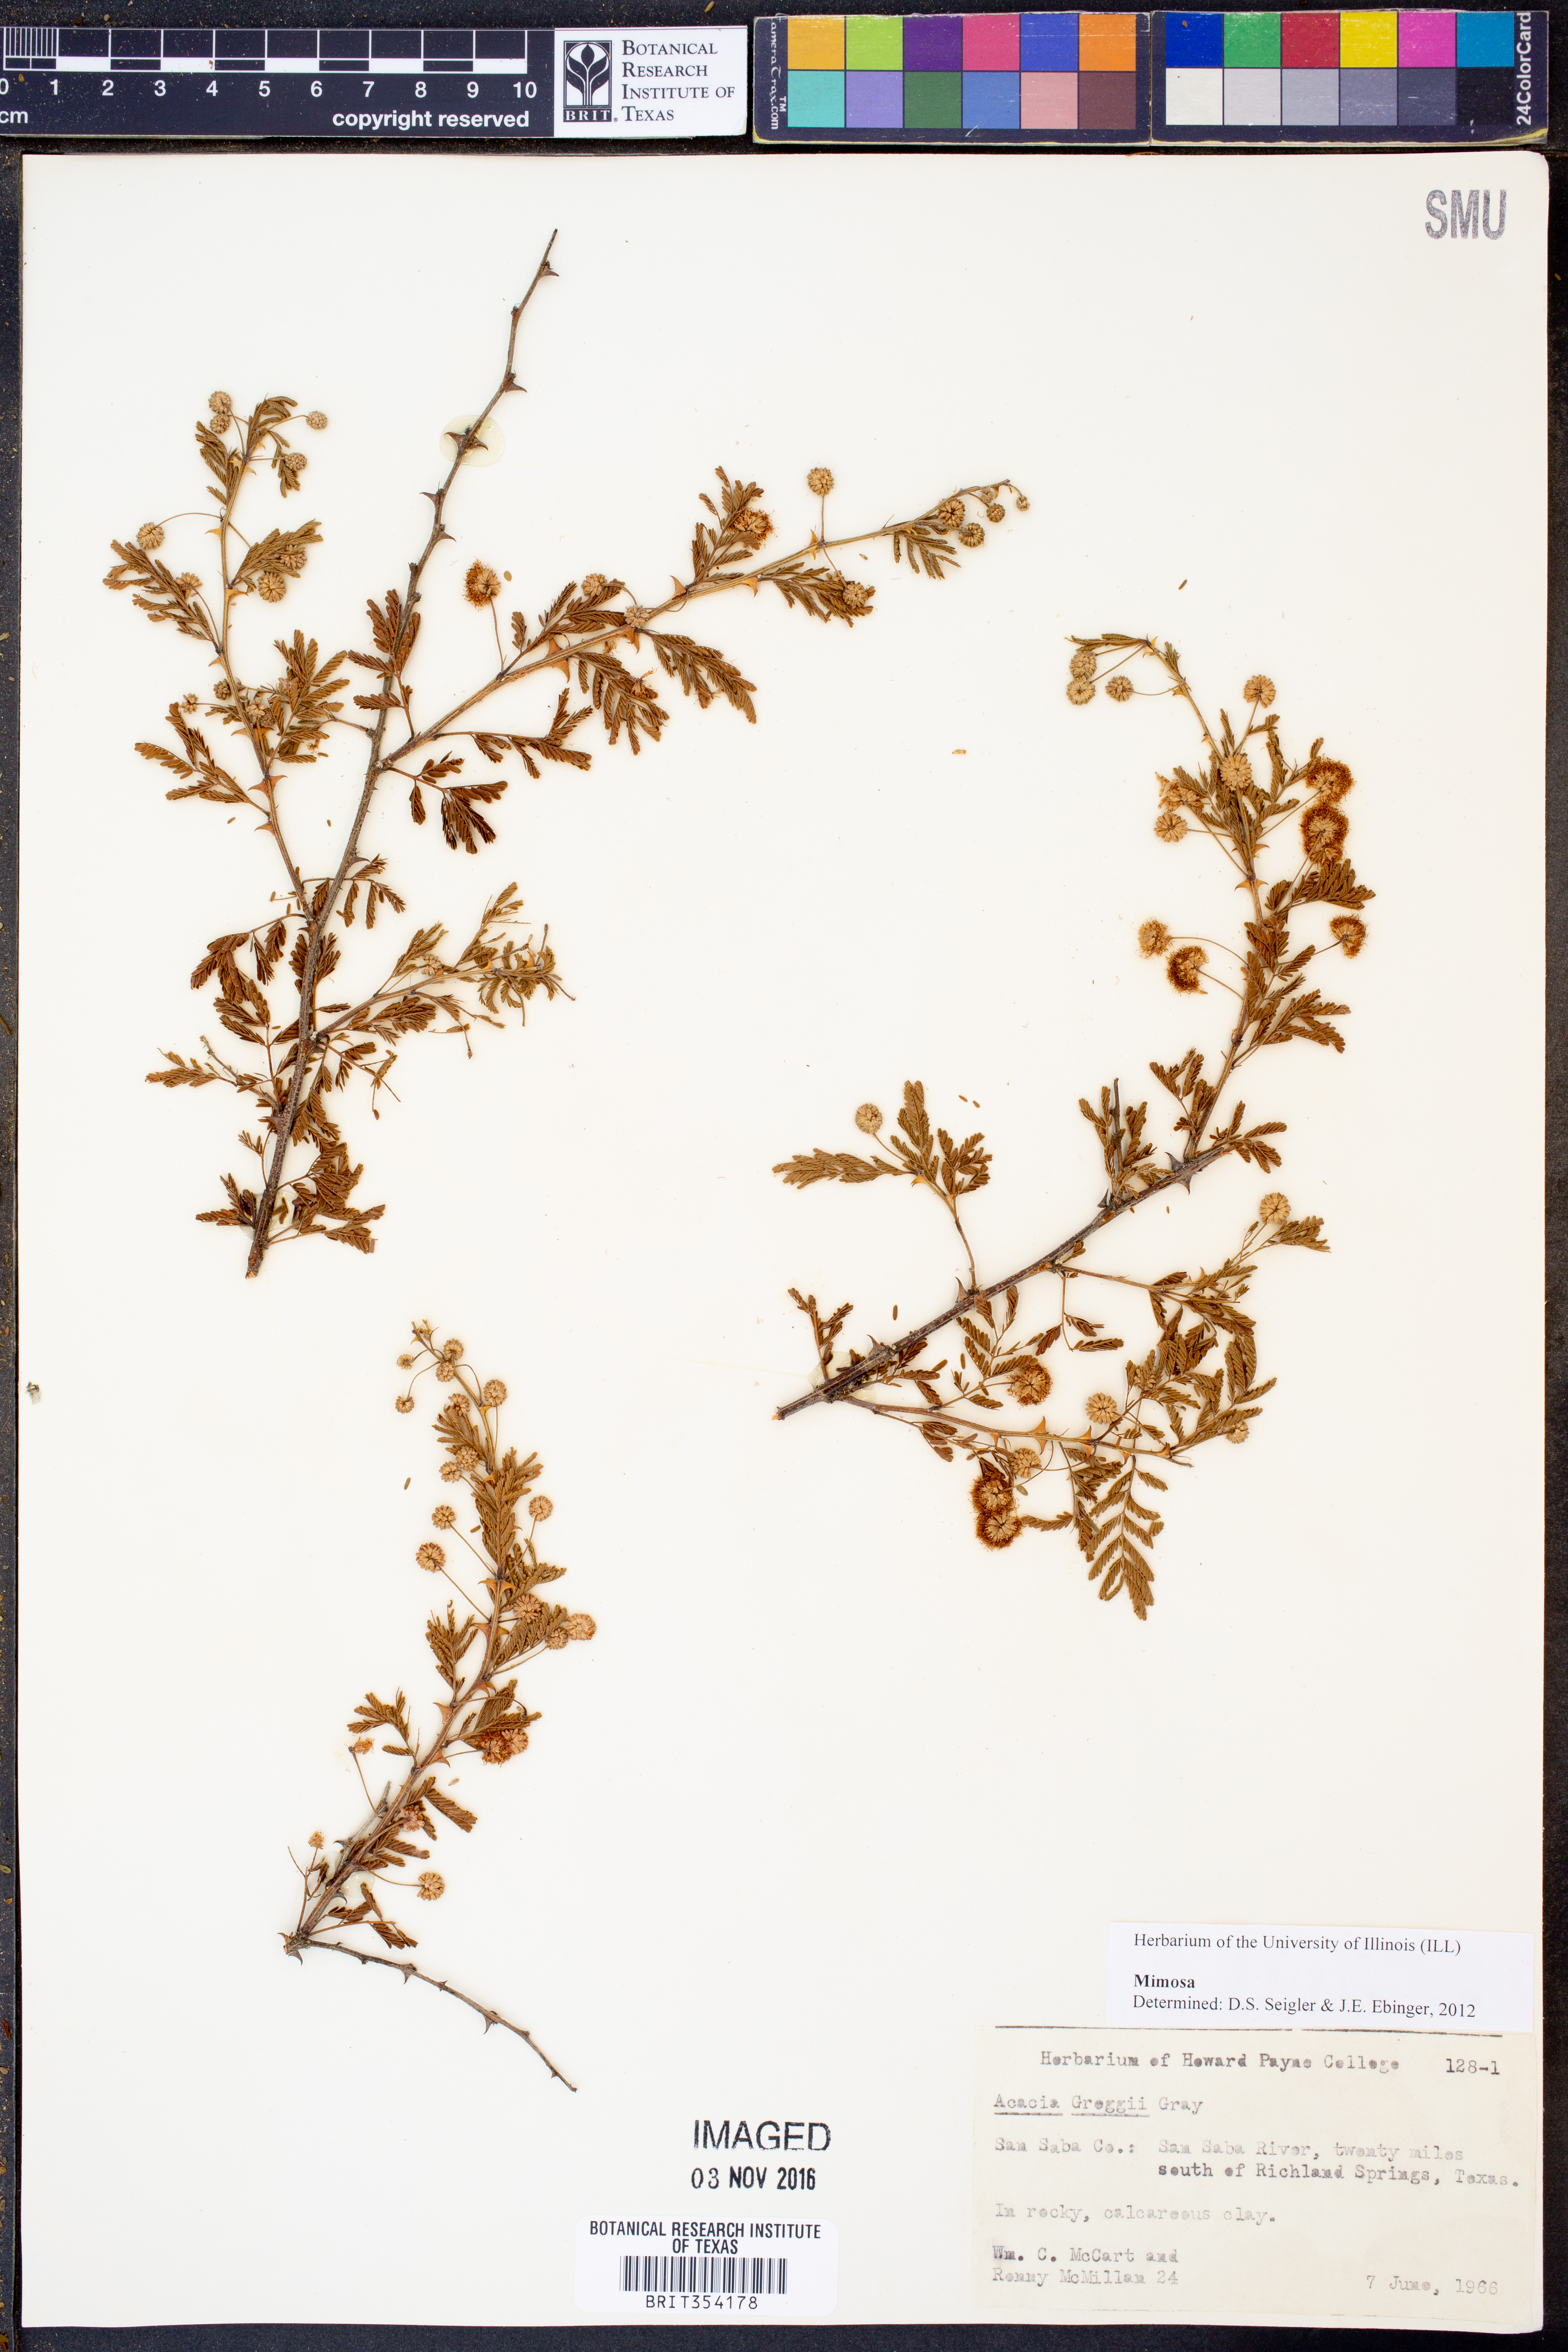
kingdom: Plantae
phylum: Tracheophyta
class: Magnoliopsida
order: Fabales
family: Fabaceae
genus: Mimosa
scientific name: Mimosa
